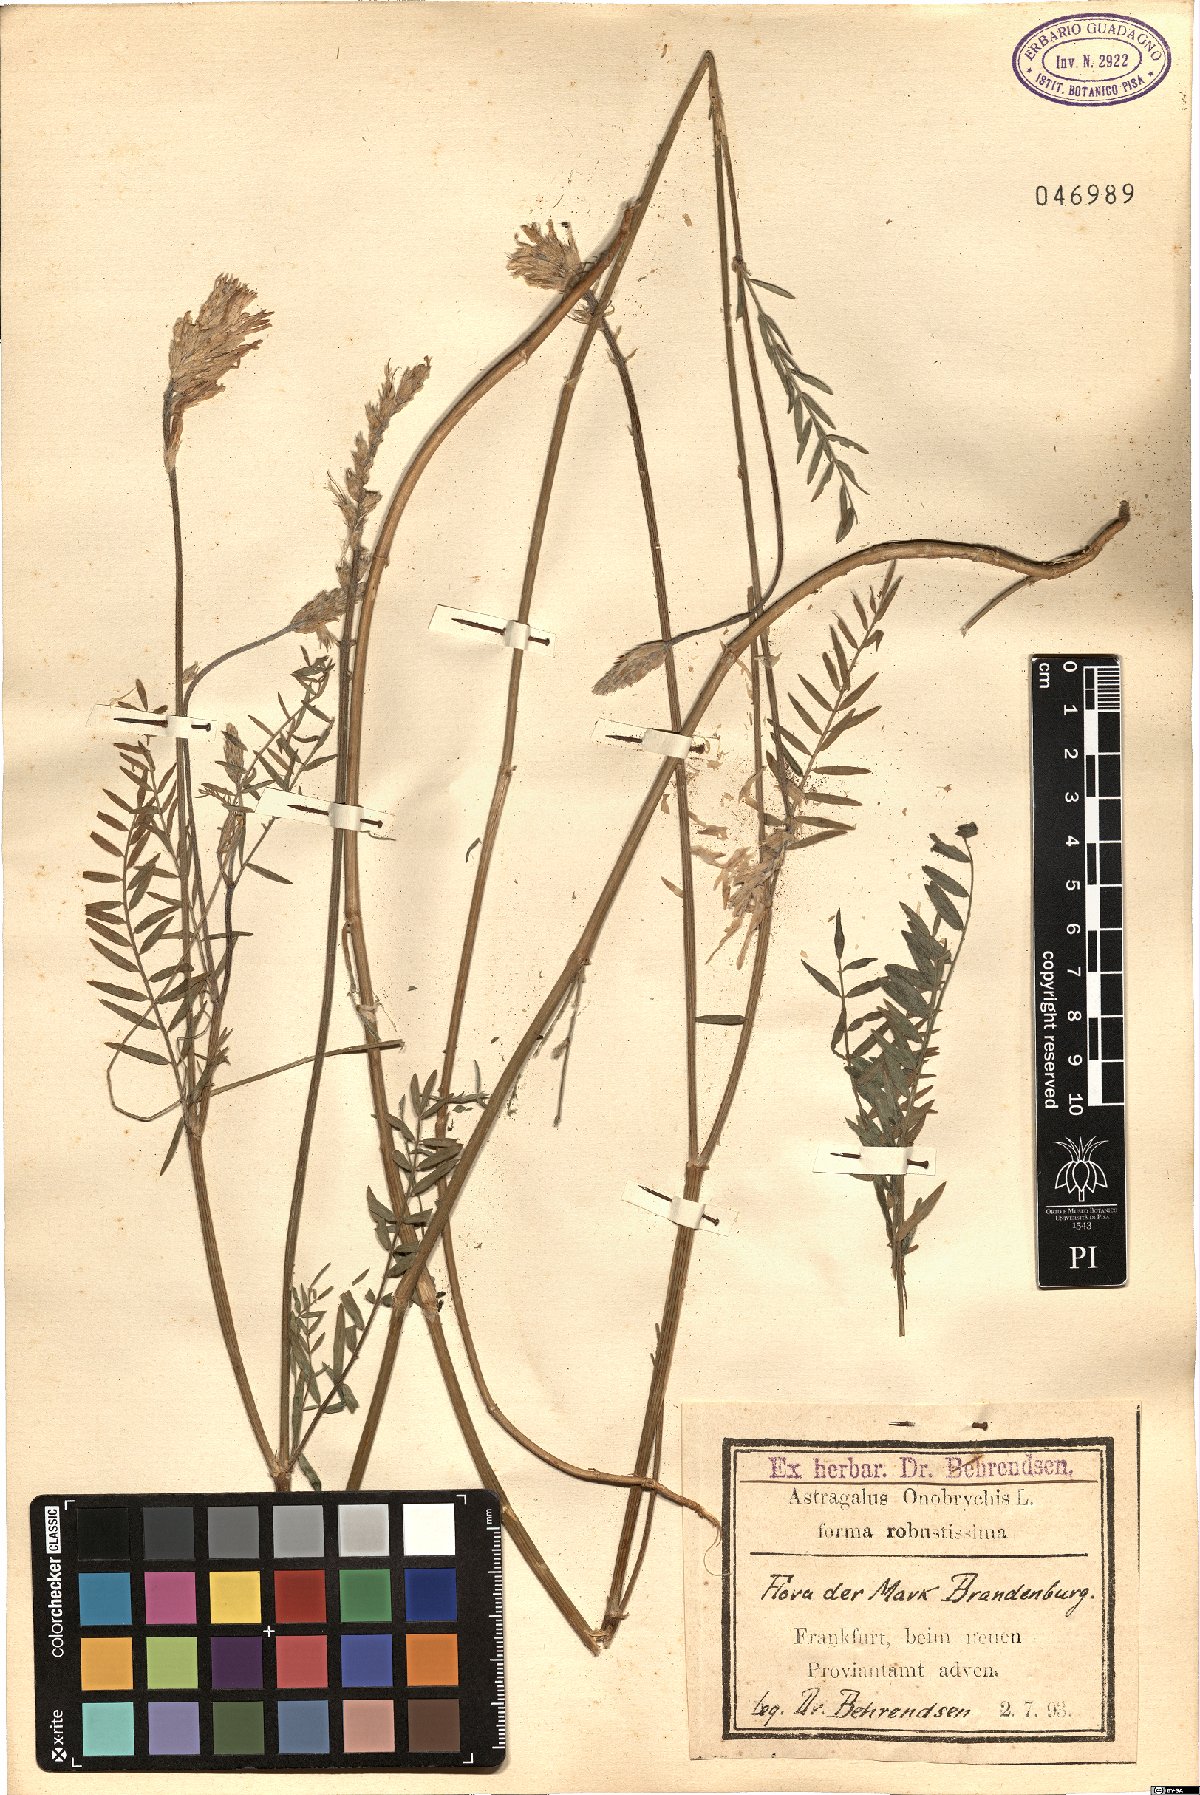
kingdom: Plantae
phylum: Tracheophyta
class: Magnoliopsida
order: Fabales
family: Fabaceae
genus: Astragalus
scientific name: Astragalus onobrychis
